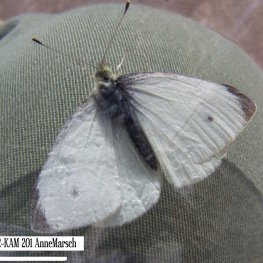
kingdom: Animalia
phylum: Arthropoda
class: Insecta
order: Lepidoptera
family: Pieridae
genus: Pieris
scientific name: Pieris rapae
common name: Cabbage White
